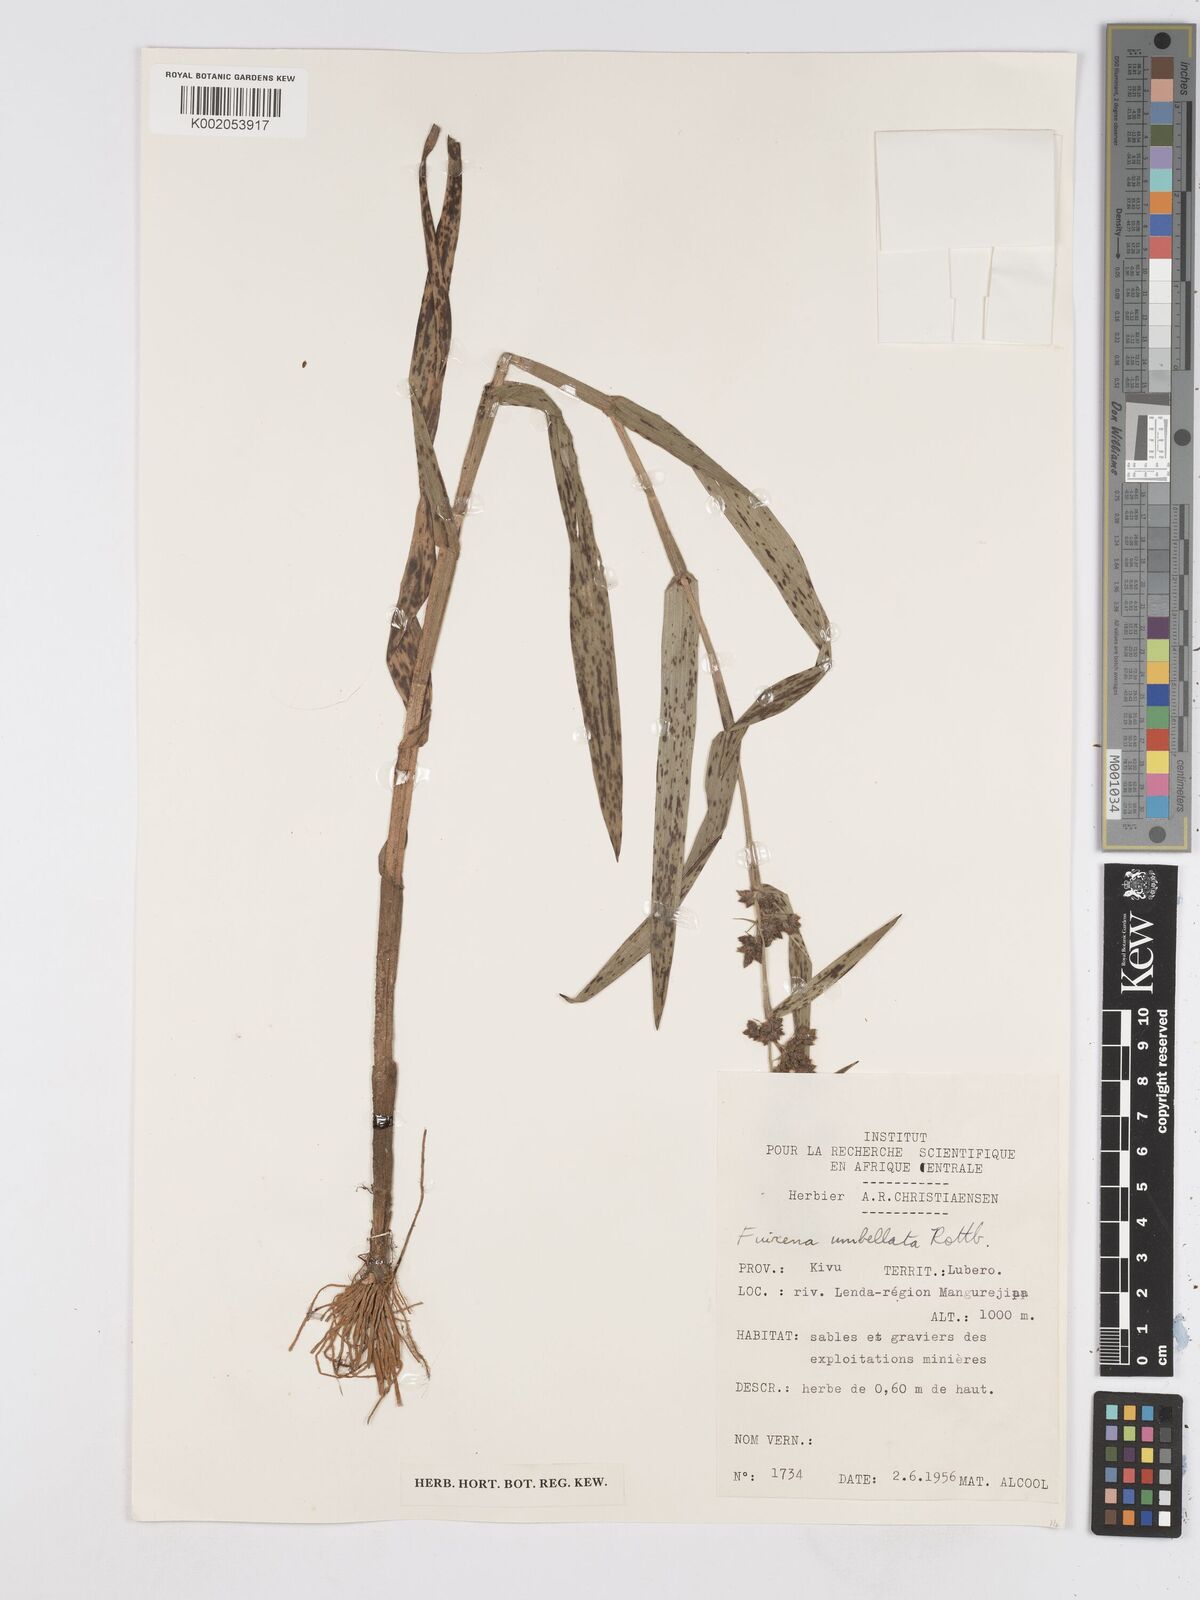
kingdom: Plantae
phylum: Tracheophyta
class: Liliopsida
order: Poales
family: Cyperaceae
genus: Fuirena
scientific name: Fuirena umbellata
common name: Yefen
